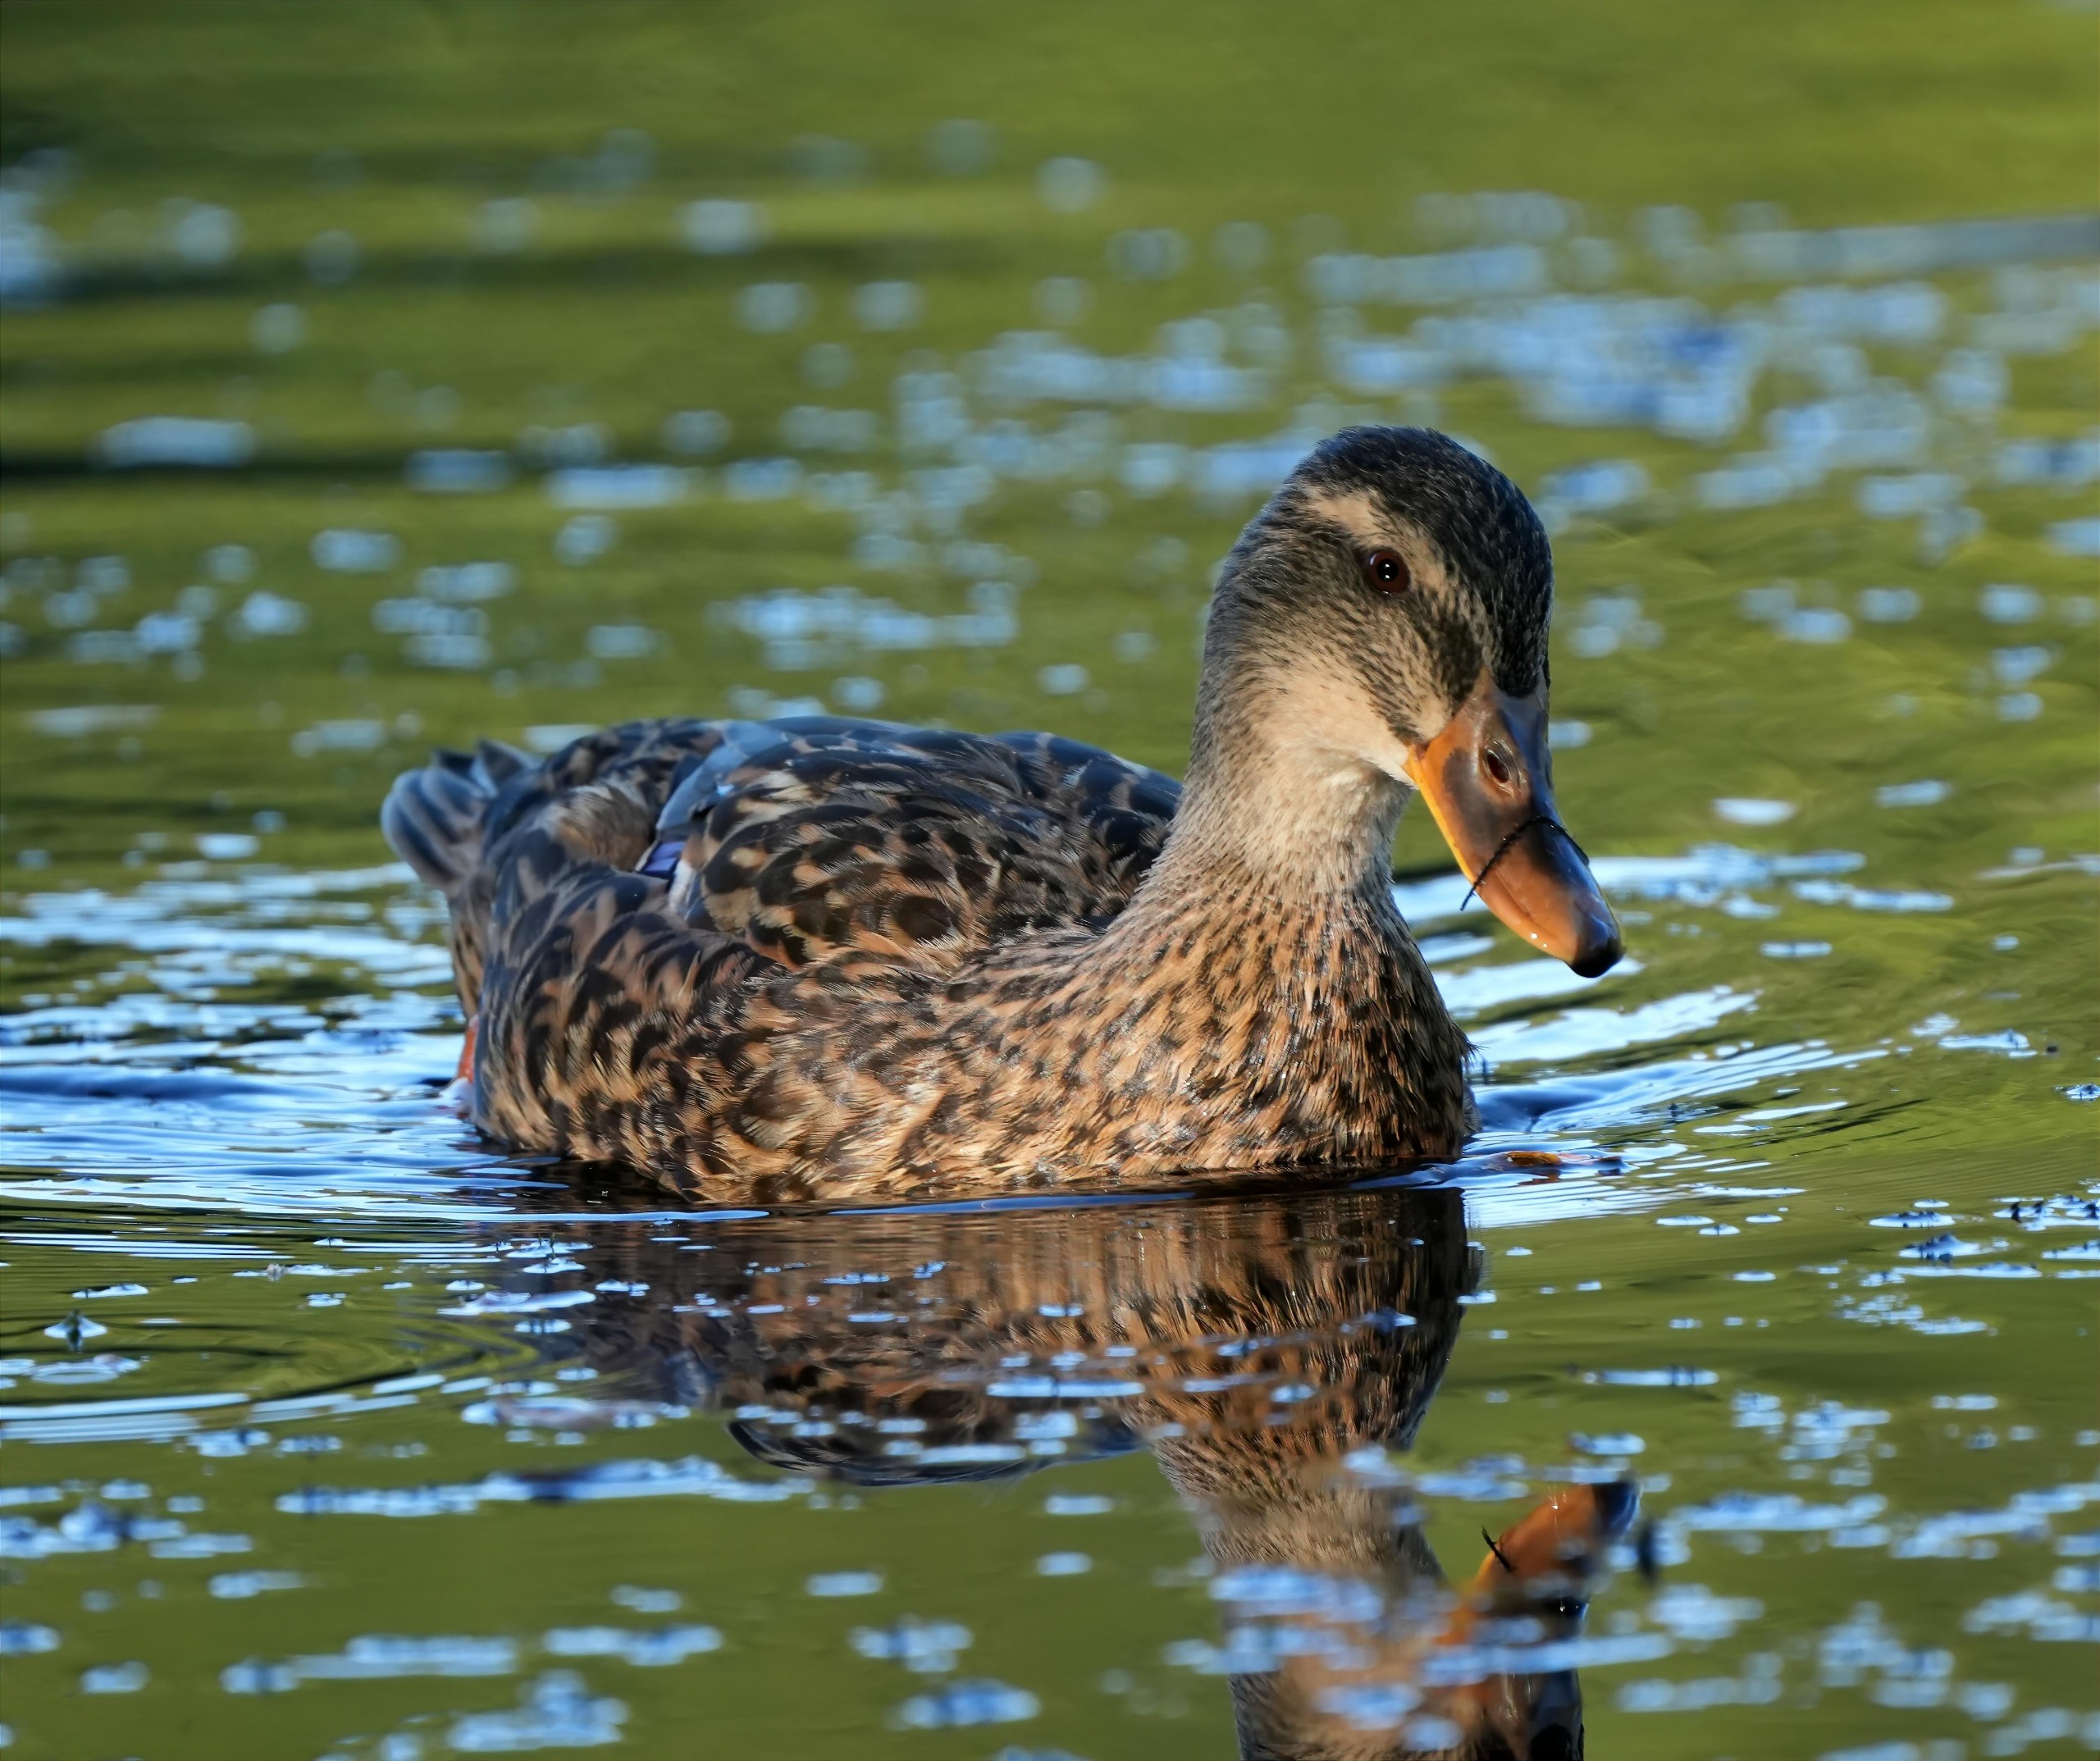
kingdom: Animalia
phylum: Chordata
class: Aves
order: Anseriformes
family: Anatidae
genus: Anas
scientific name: Anas platyrhynchos
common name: Gråand
